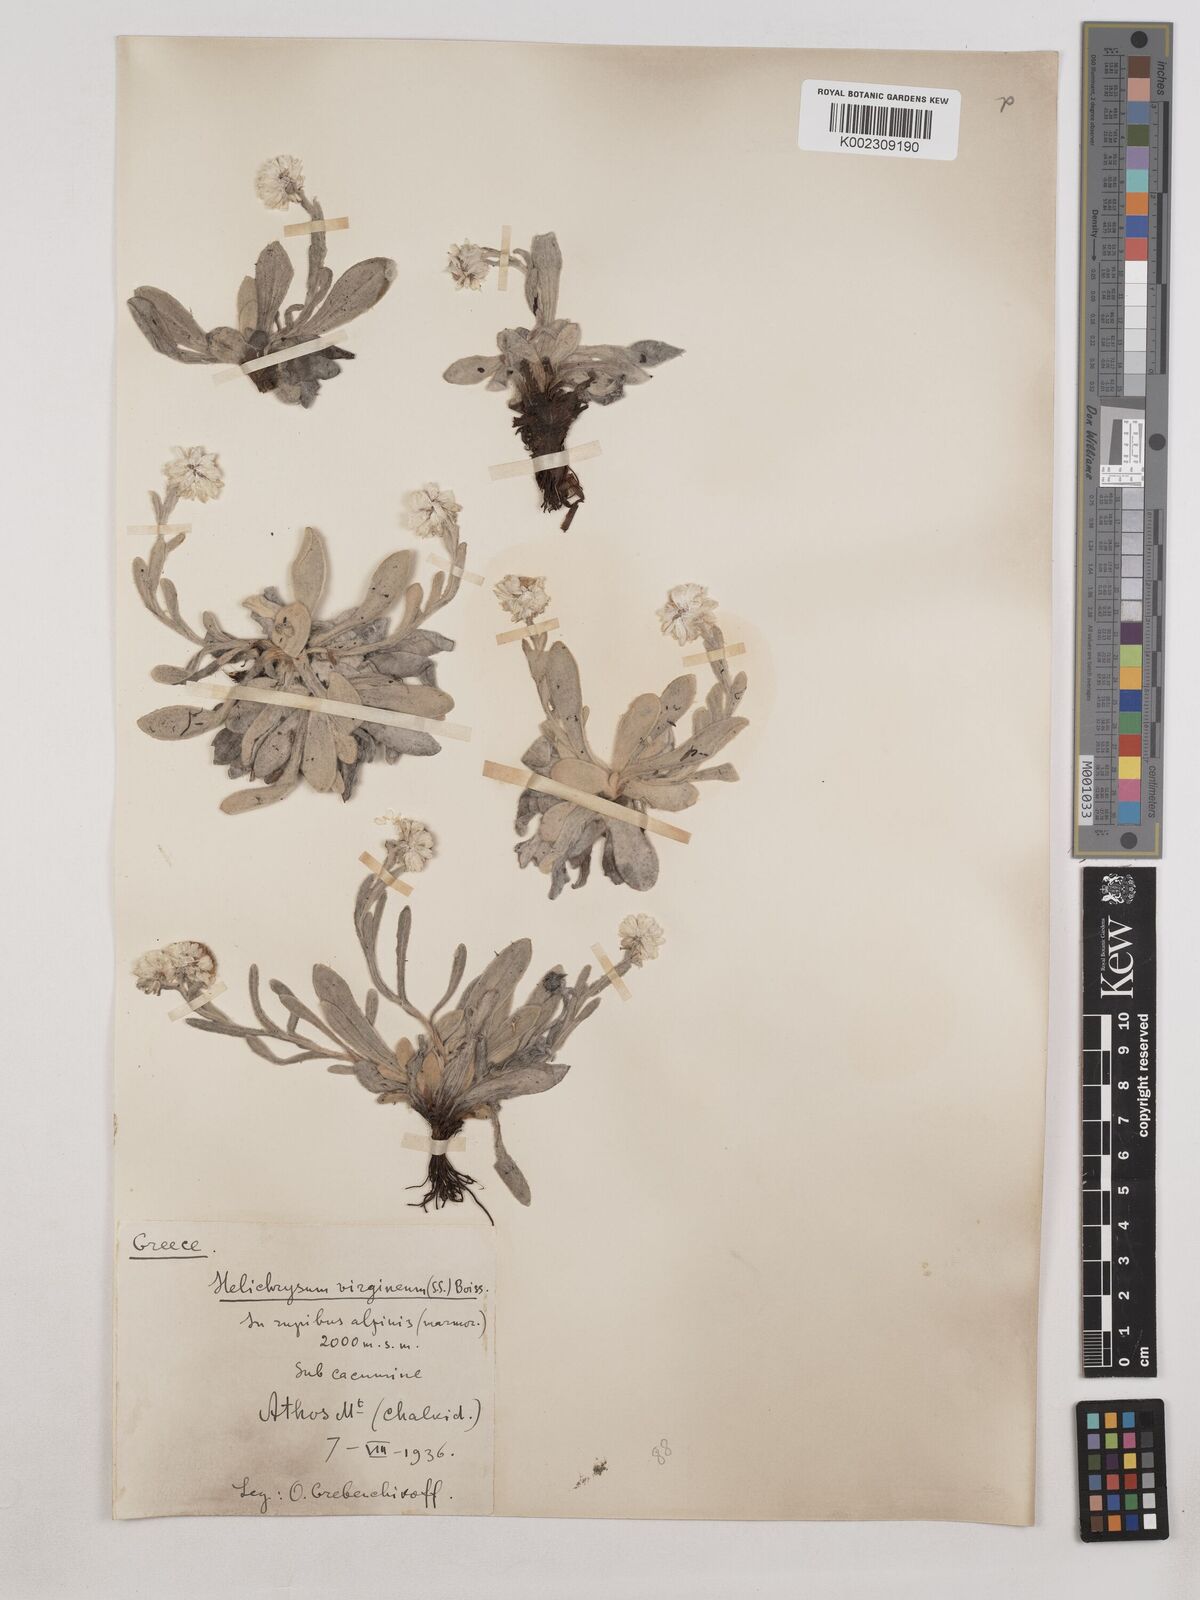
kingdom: Plantae
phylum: Tracheophyta
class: Magnoliopsida
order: Asterales
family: Asteraceae
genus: Helichrysum
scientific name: Helichrysum sibthorpii
